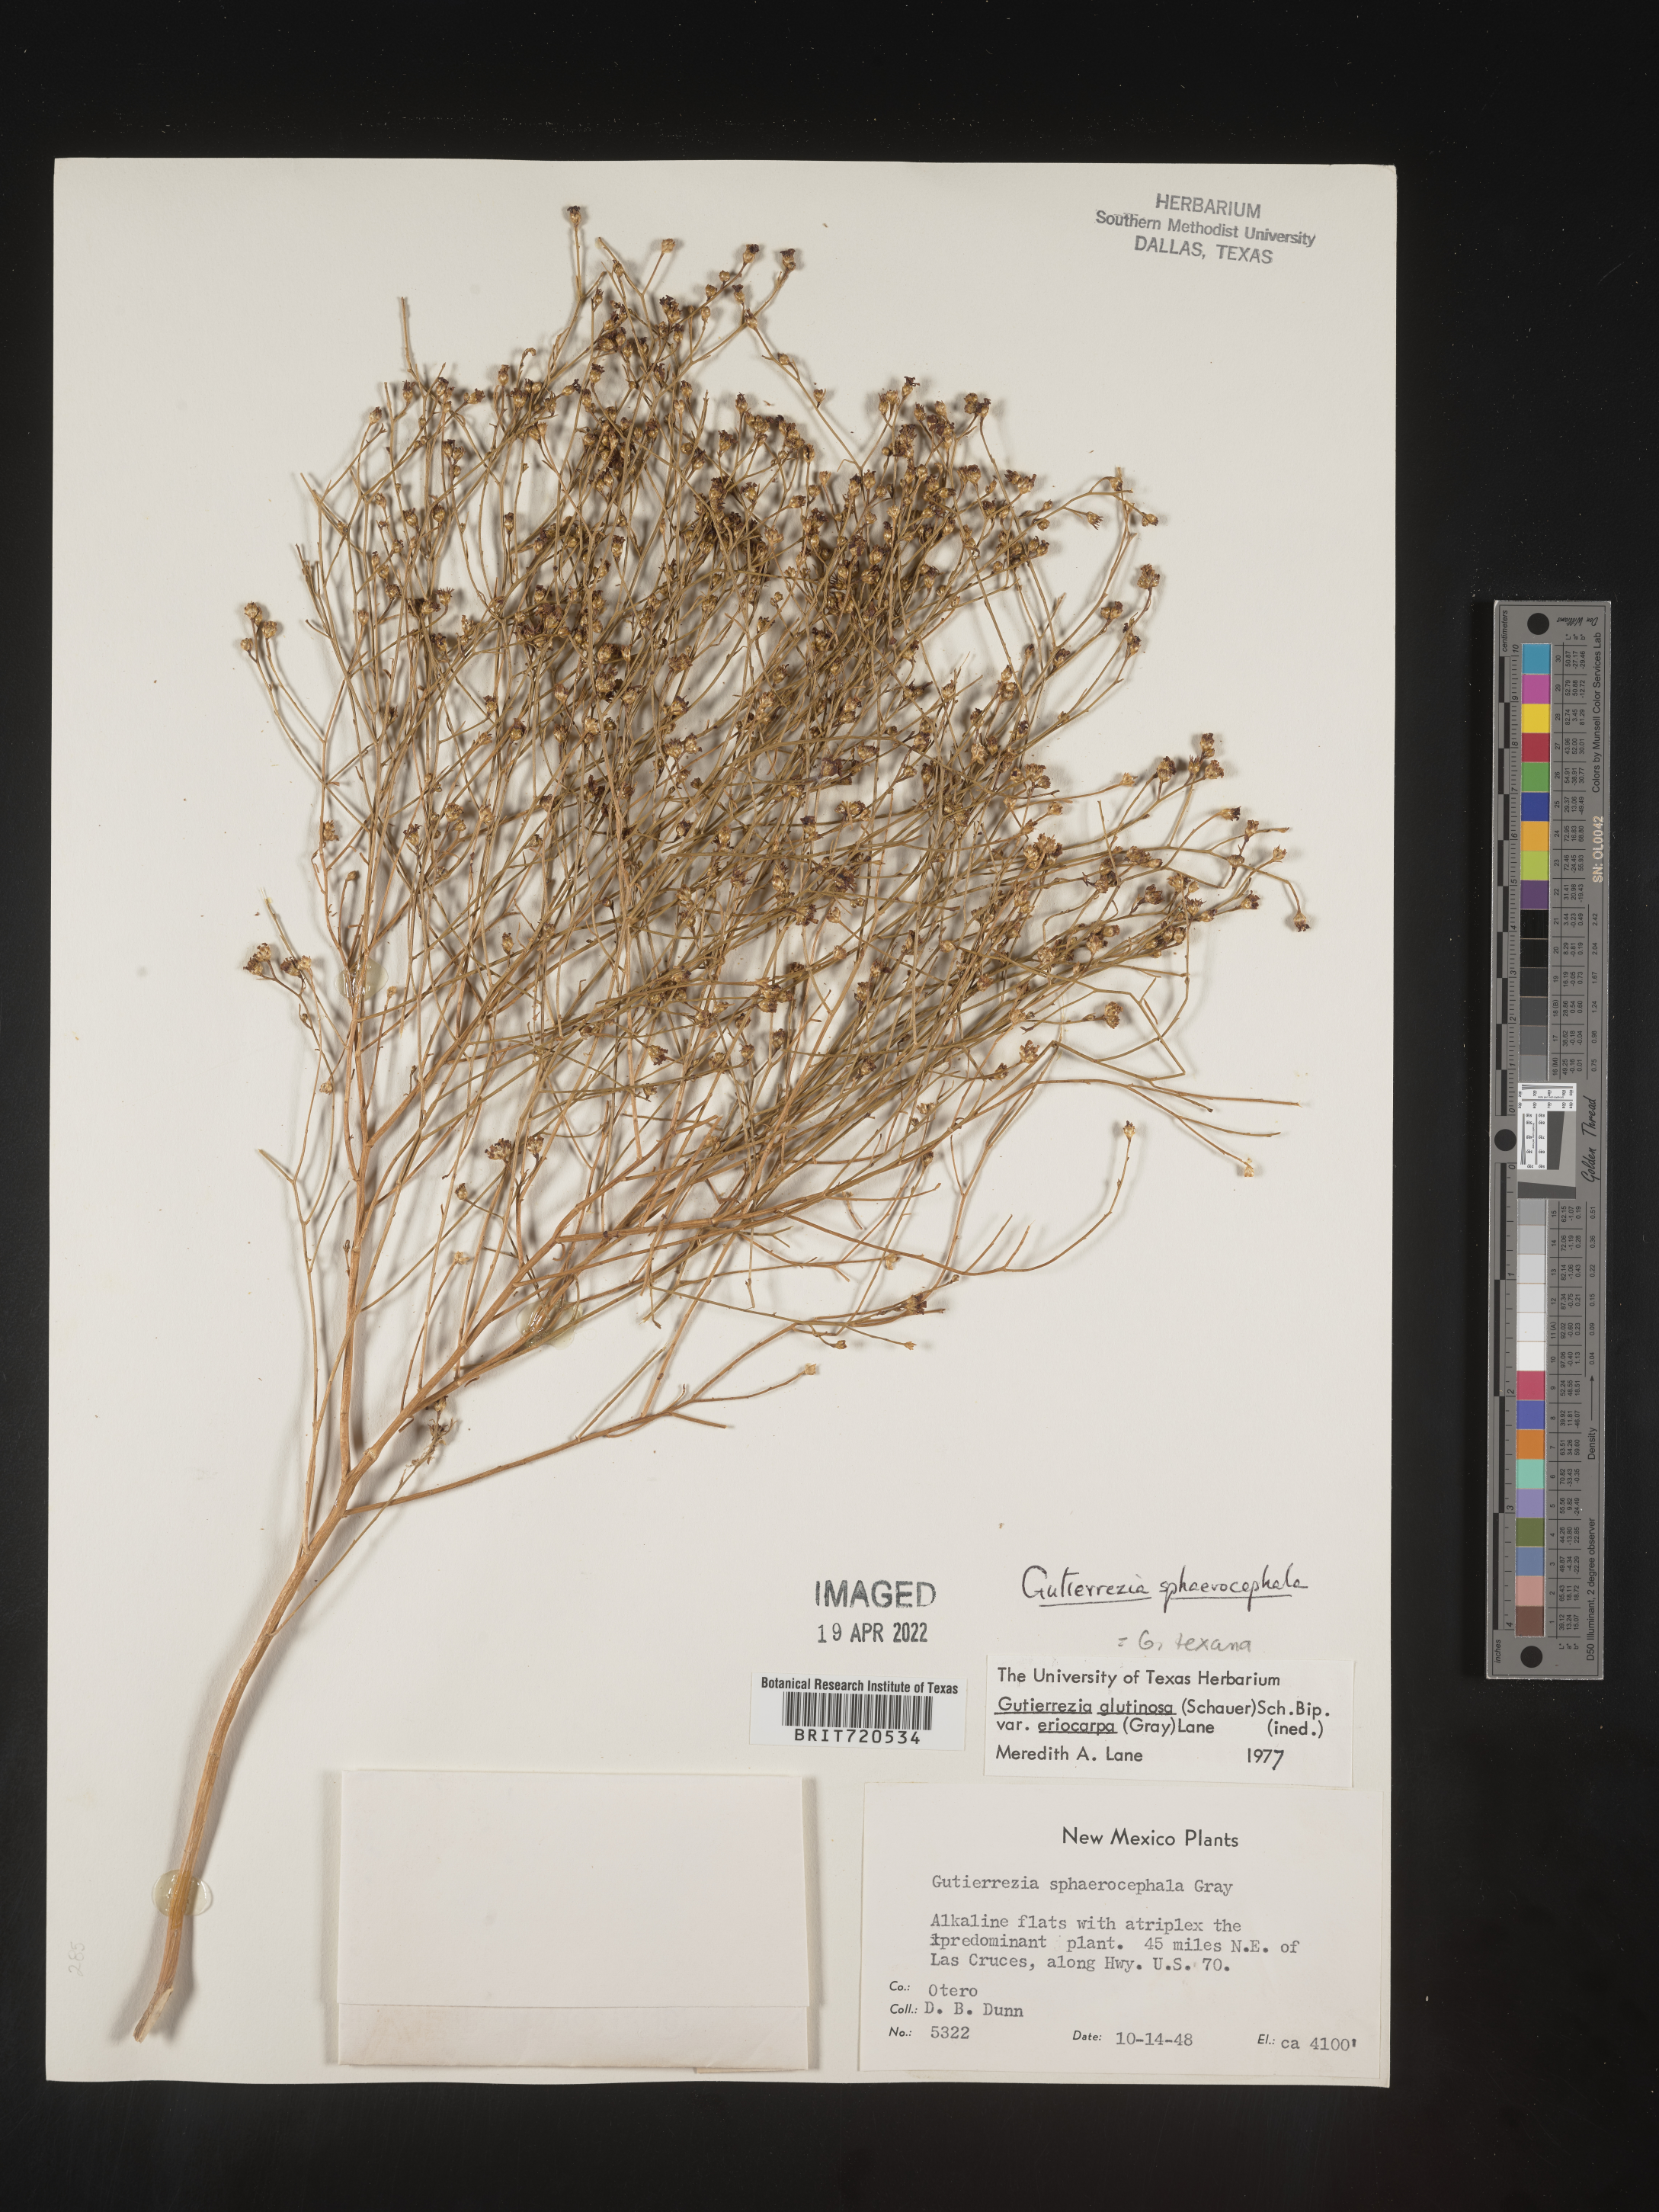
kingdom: Plantae
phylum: Tracheophyta
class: Magnoliopsida
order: Asterales
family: Asteraceae
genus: Gutierrezia
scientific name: Gutierrezia sphaerocephala
